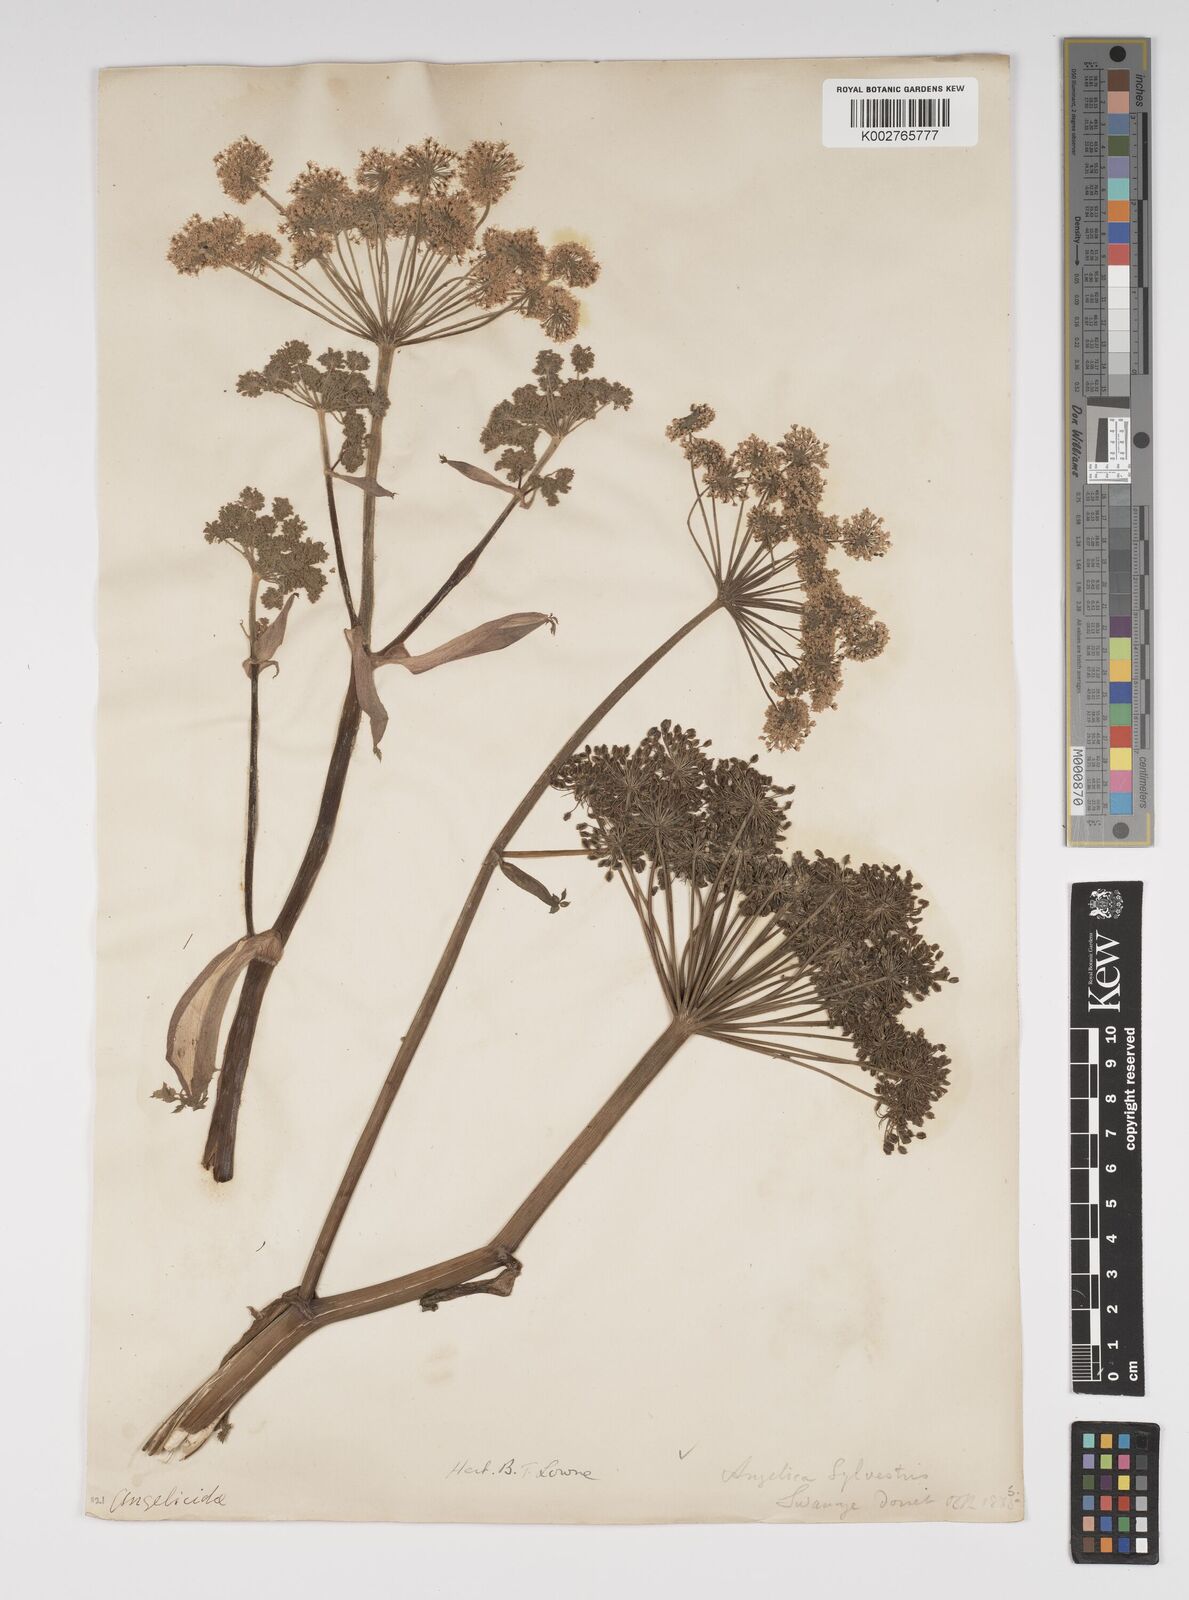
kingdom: Plantae
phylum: Tracheophyta
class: Magnoliopsida
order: Apiales
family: Apiaceae
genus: Angelica
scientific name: Angelica sylvestris
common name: Wild angelica
